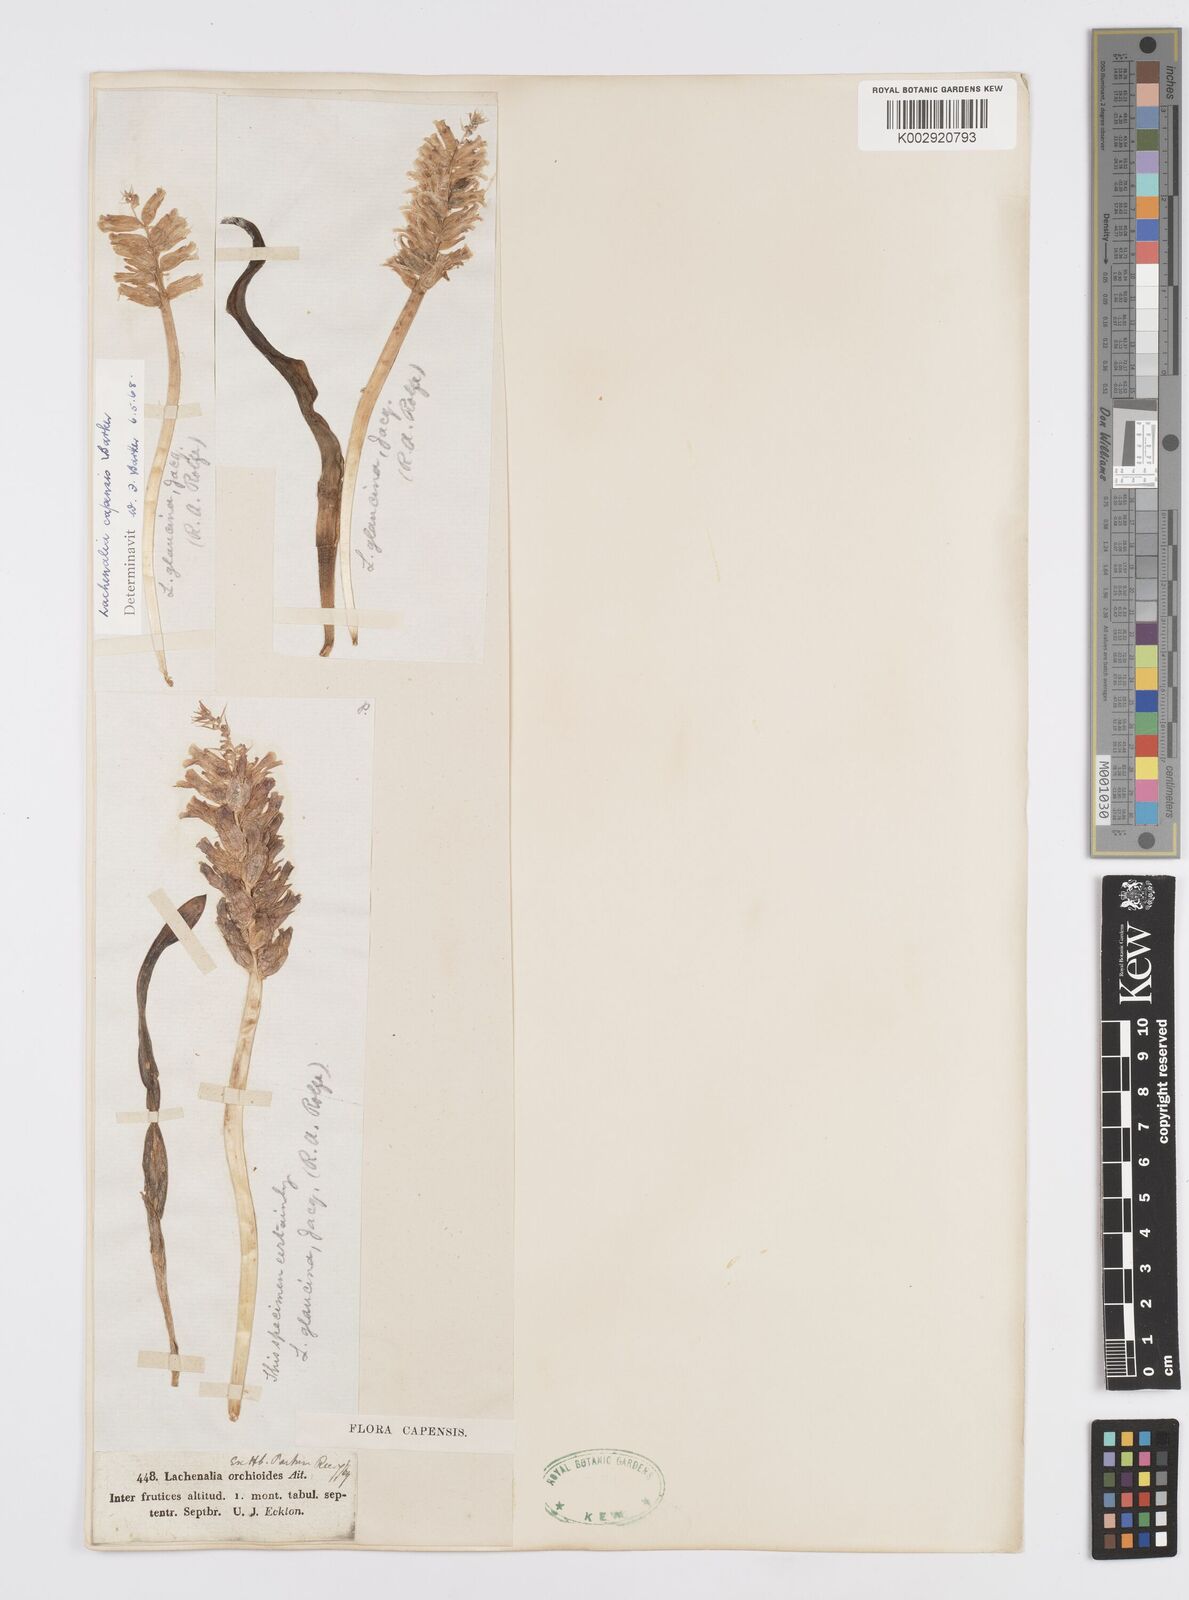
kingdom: Plantae
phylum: Tracheophyta
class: Liliopsida
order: Asparagales
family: Asparagaceae
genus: Lachenalia
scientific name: Lachenalia capensis
